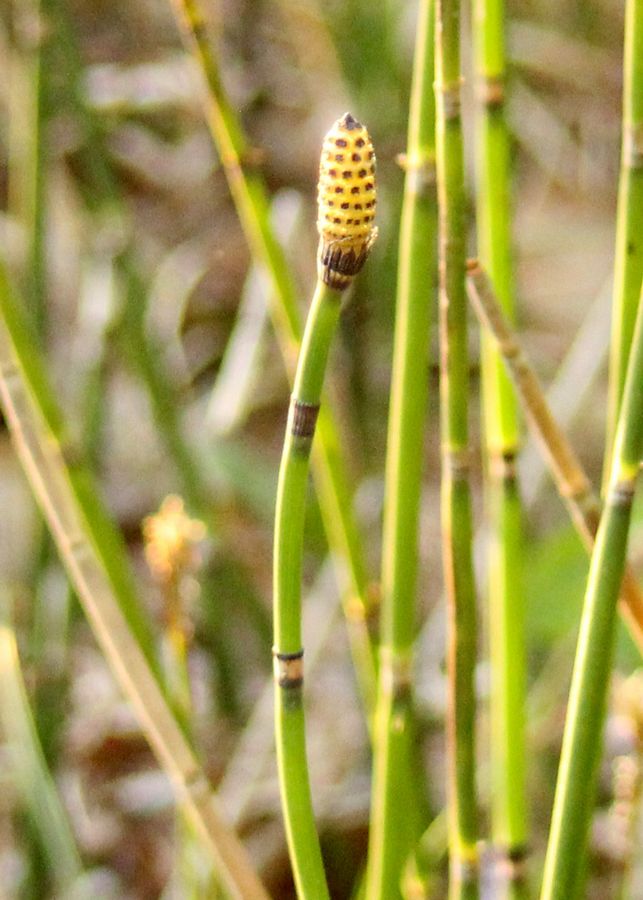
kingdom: Plantae
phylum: Tracheophyta
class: Polypodiopsida
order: Equisetales
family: Equisetaceae
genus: Equisetum
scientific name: Equisetum hyemale
